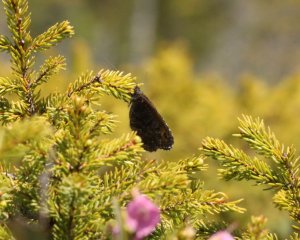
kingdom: Animalia
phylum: Arthropoda
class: Insecta
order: Lepidoptera
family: Nymphalidae
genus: Oeneis
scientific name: Oeneis jutta
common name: Jutta Arctic
